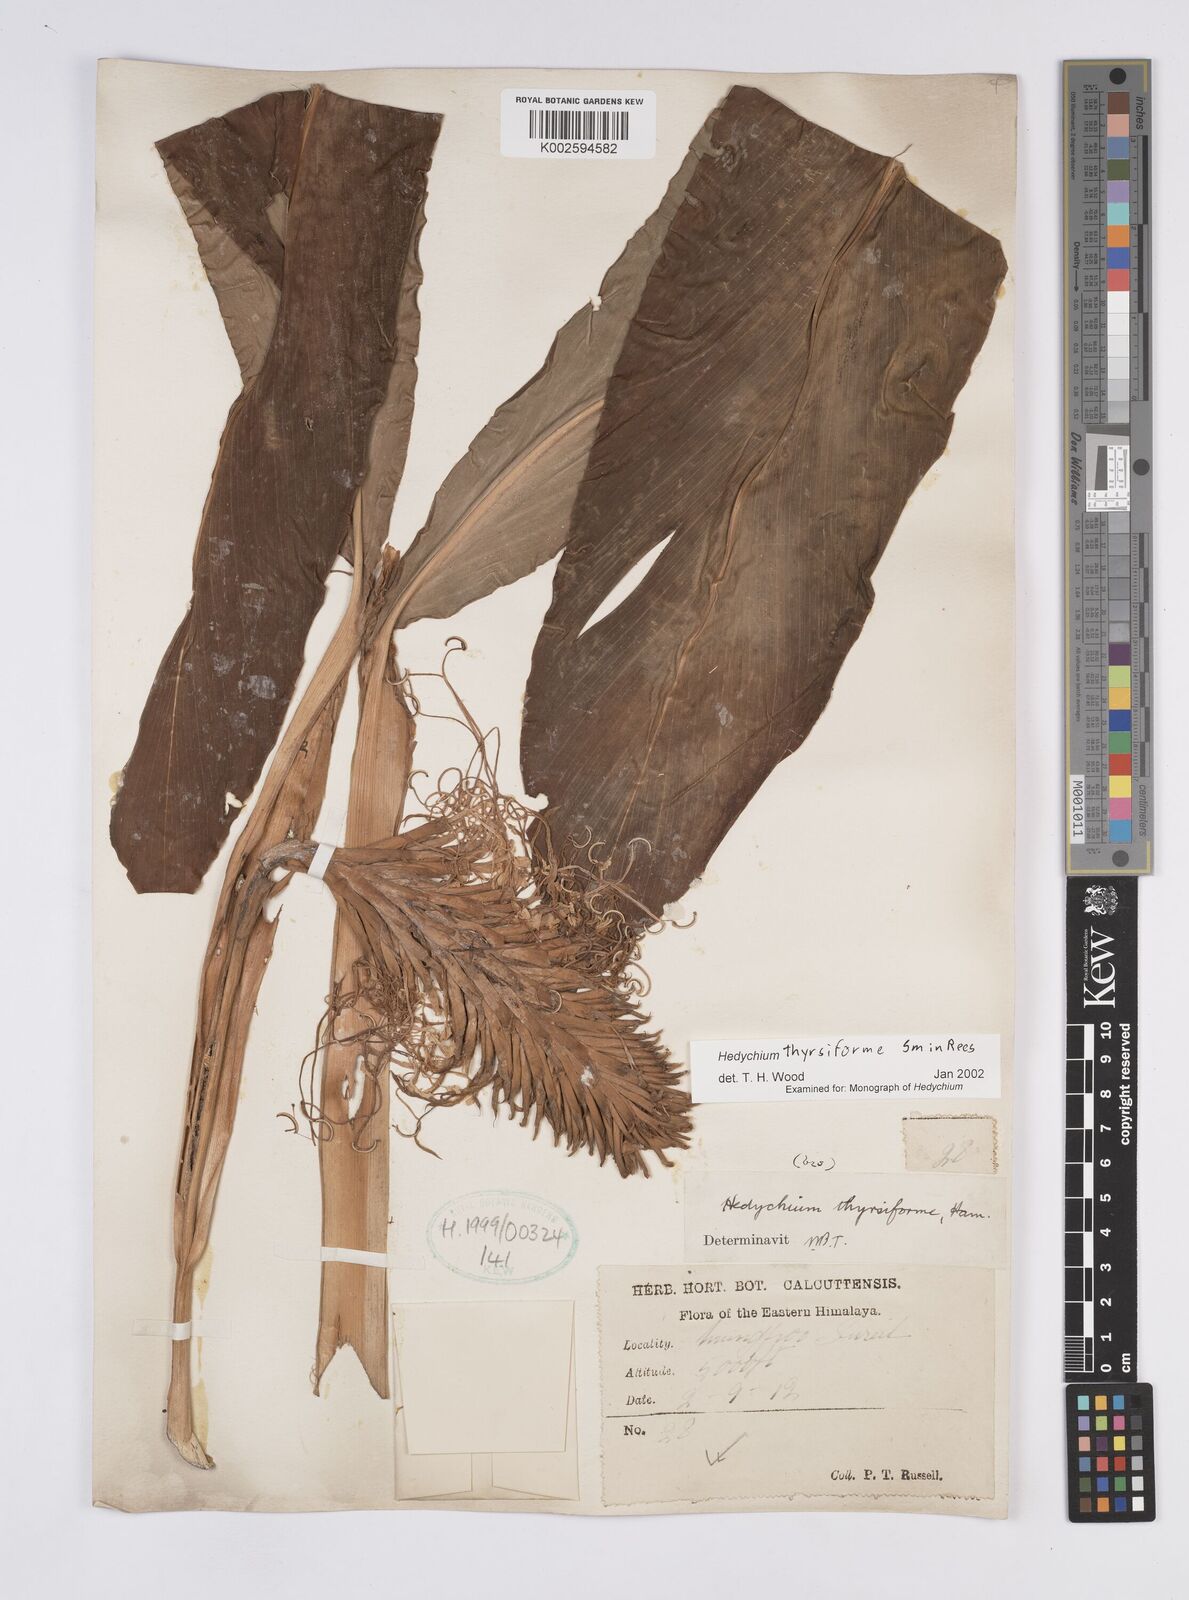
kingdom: Plantae
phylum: Tracheophyta
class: Liliopsida
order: Zingiberales
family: Zingiberaceae
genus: Hedychium
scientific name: Hedychium thyrsiforme
